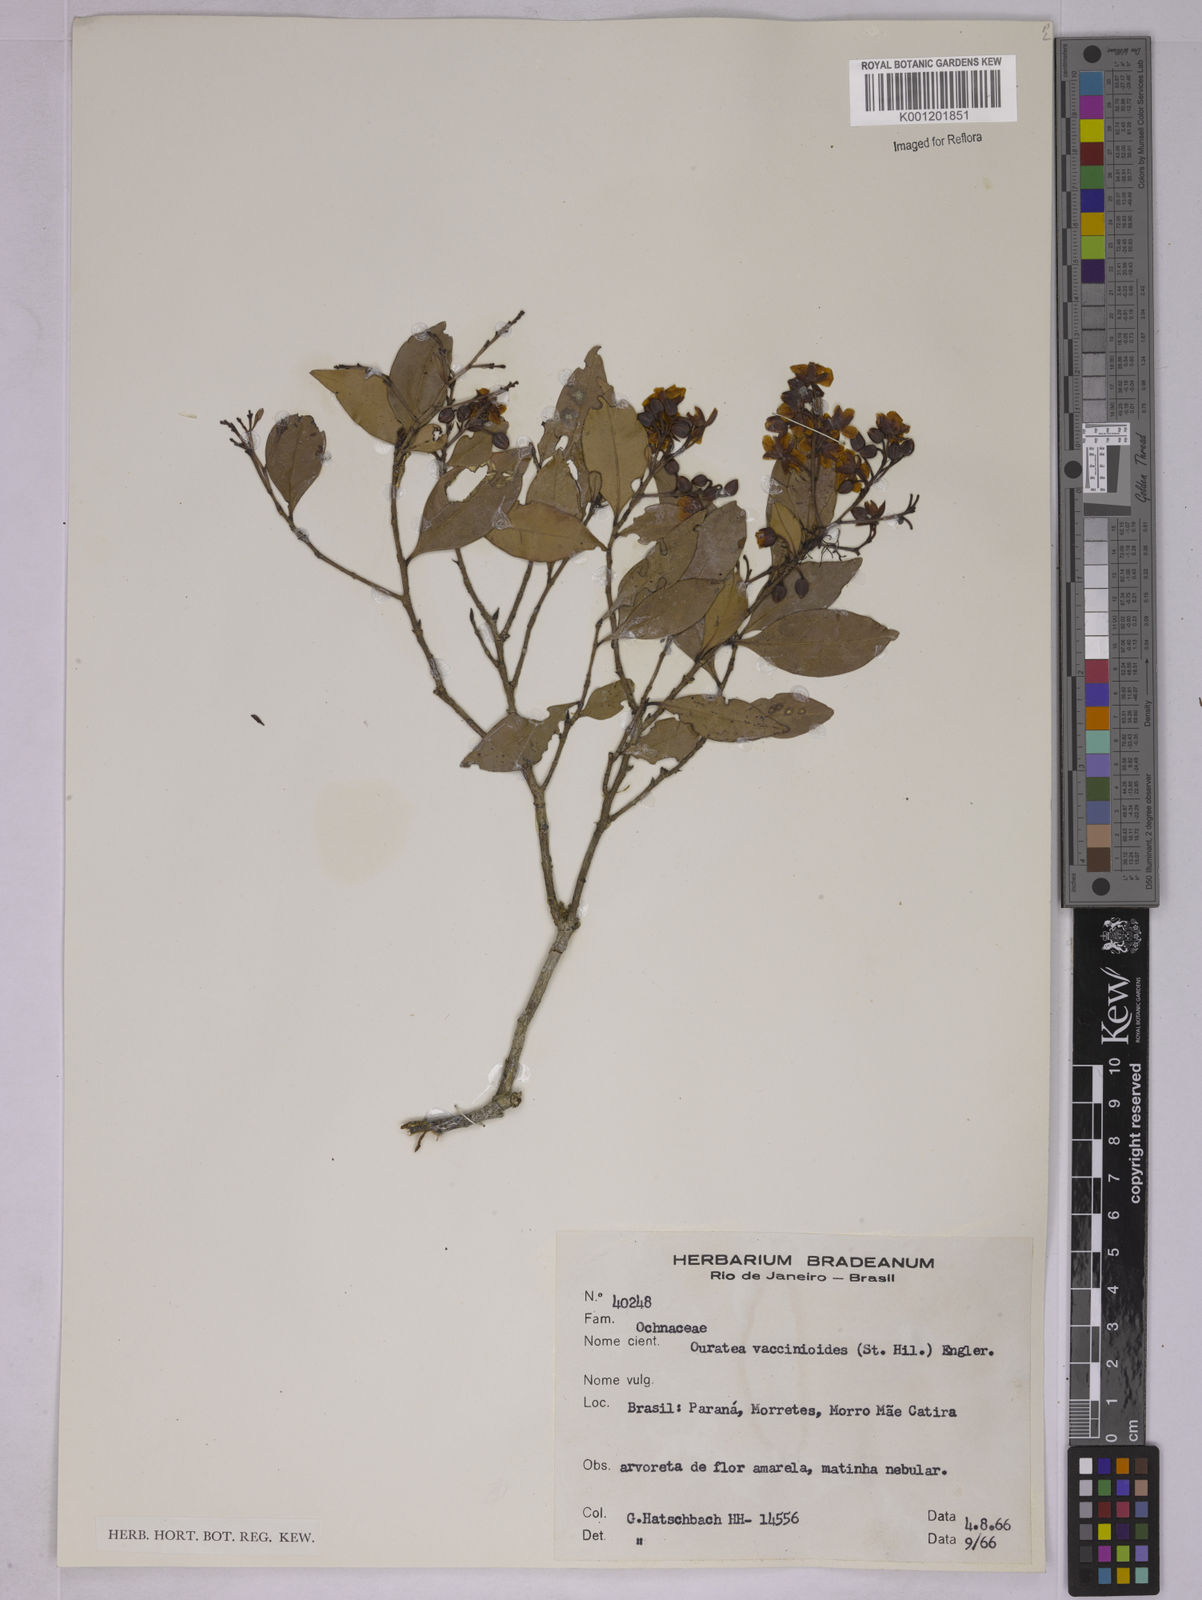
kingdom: Plantae
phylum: Tracheophyta
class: Magnoliopsida
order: Malpighiales
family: Ochnaceae
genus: Ouratea
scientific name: Ouratea vaccinioides
